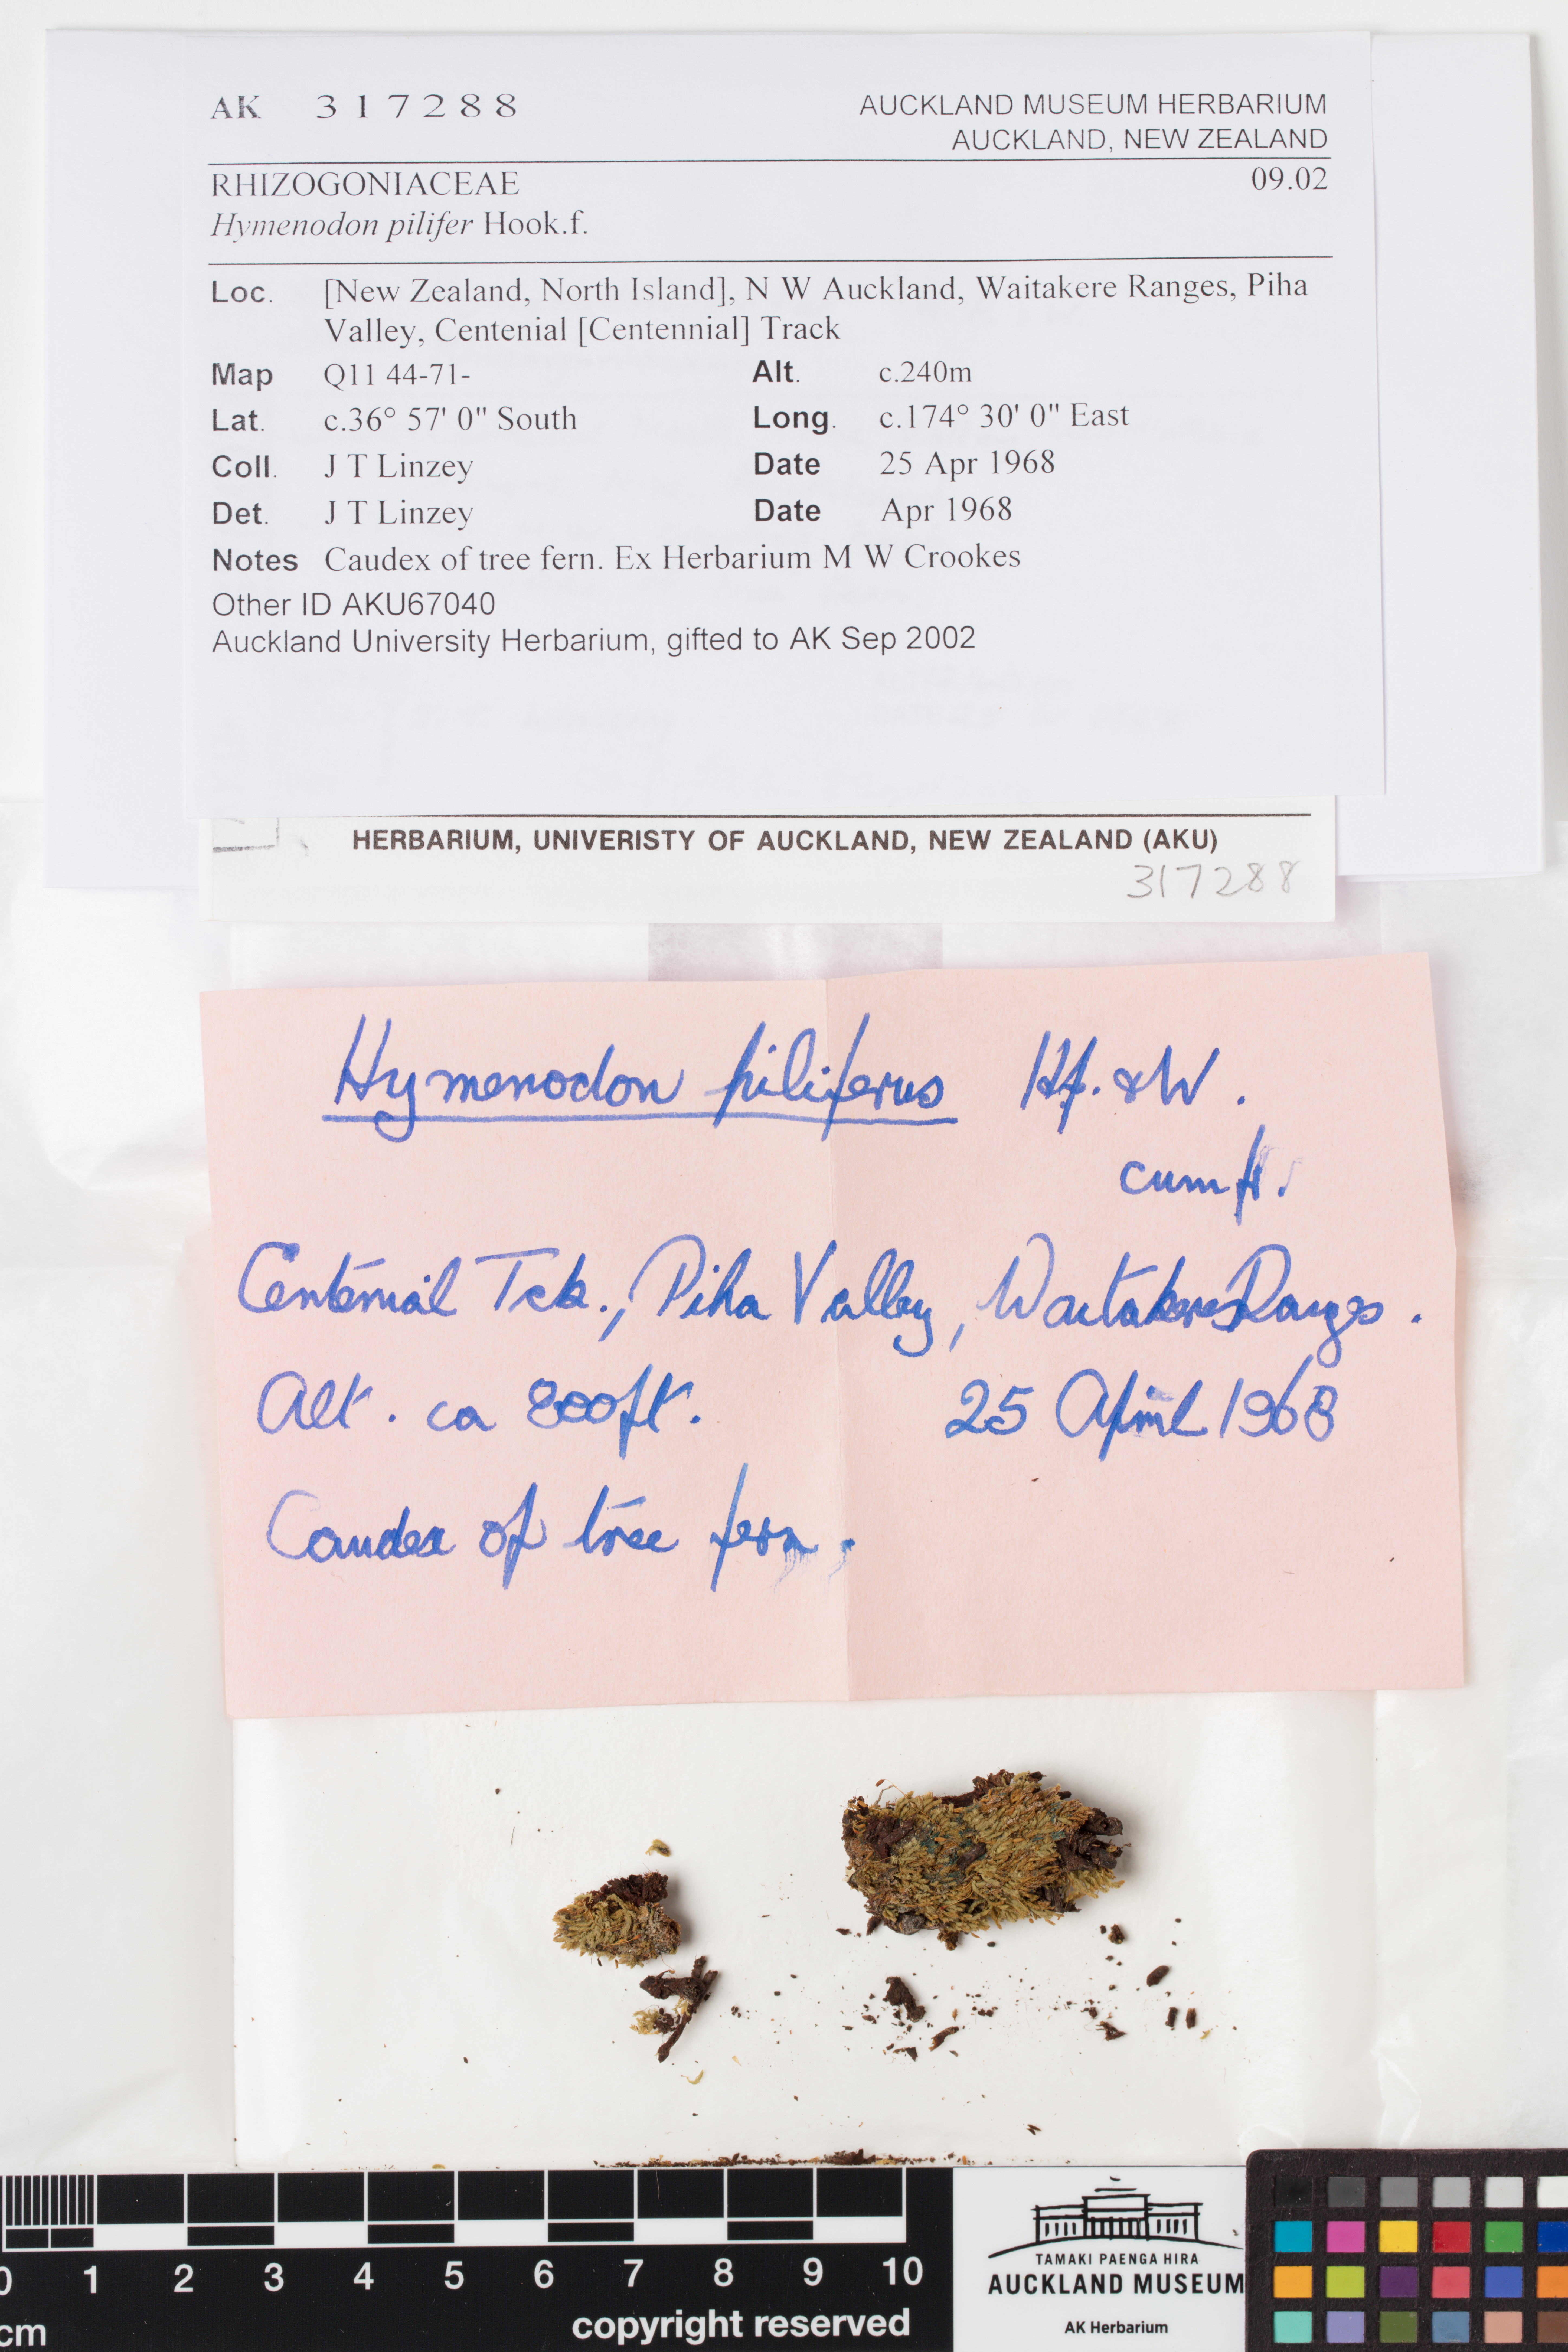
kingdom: Plantae
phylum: Bryophyta
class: Bryopsida
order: Orthodontiales
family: Orthodontiaceae
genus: Hymenodon
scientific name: Hymenodon pilifer
